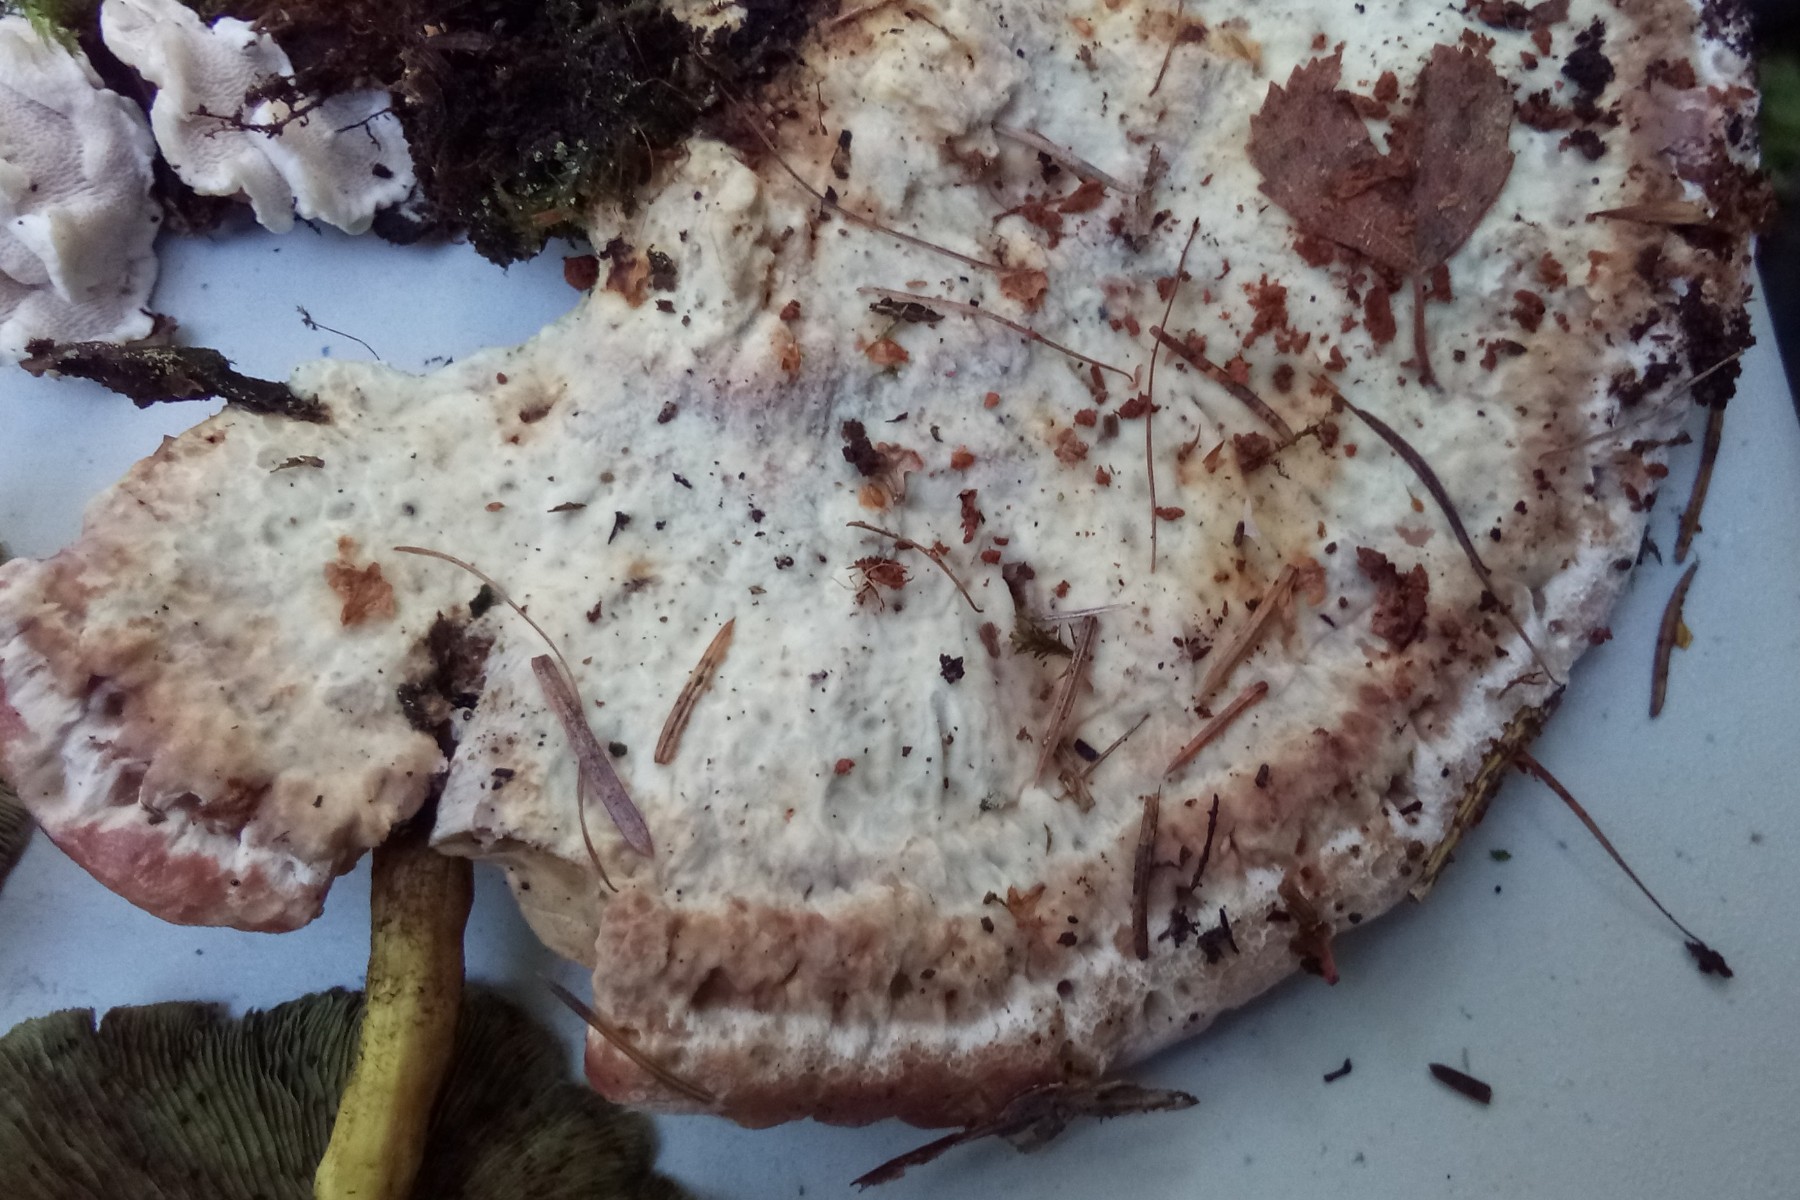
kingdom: Fungi
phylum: Basidiomycota
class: Agaricomycetes
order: Polyporales
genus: Calcipostia
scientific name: Calcipostia guttulata
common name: dråbe-kødporesvamp
